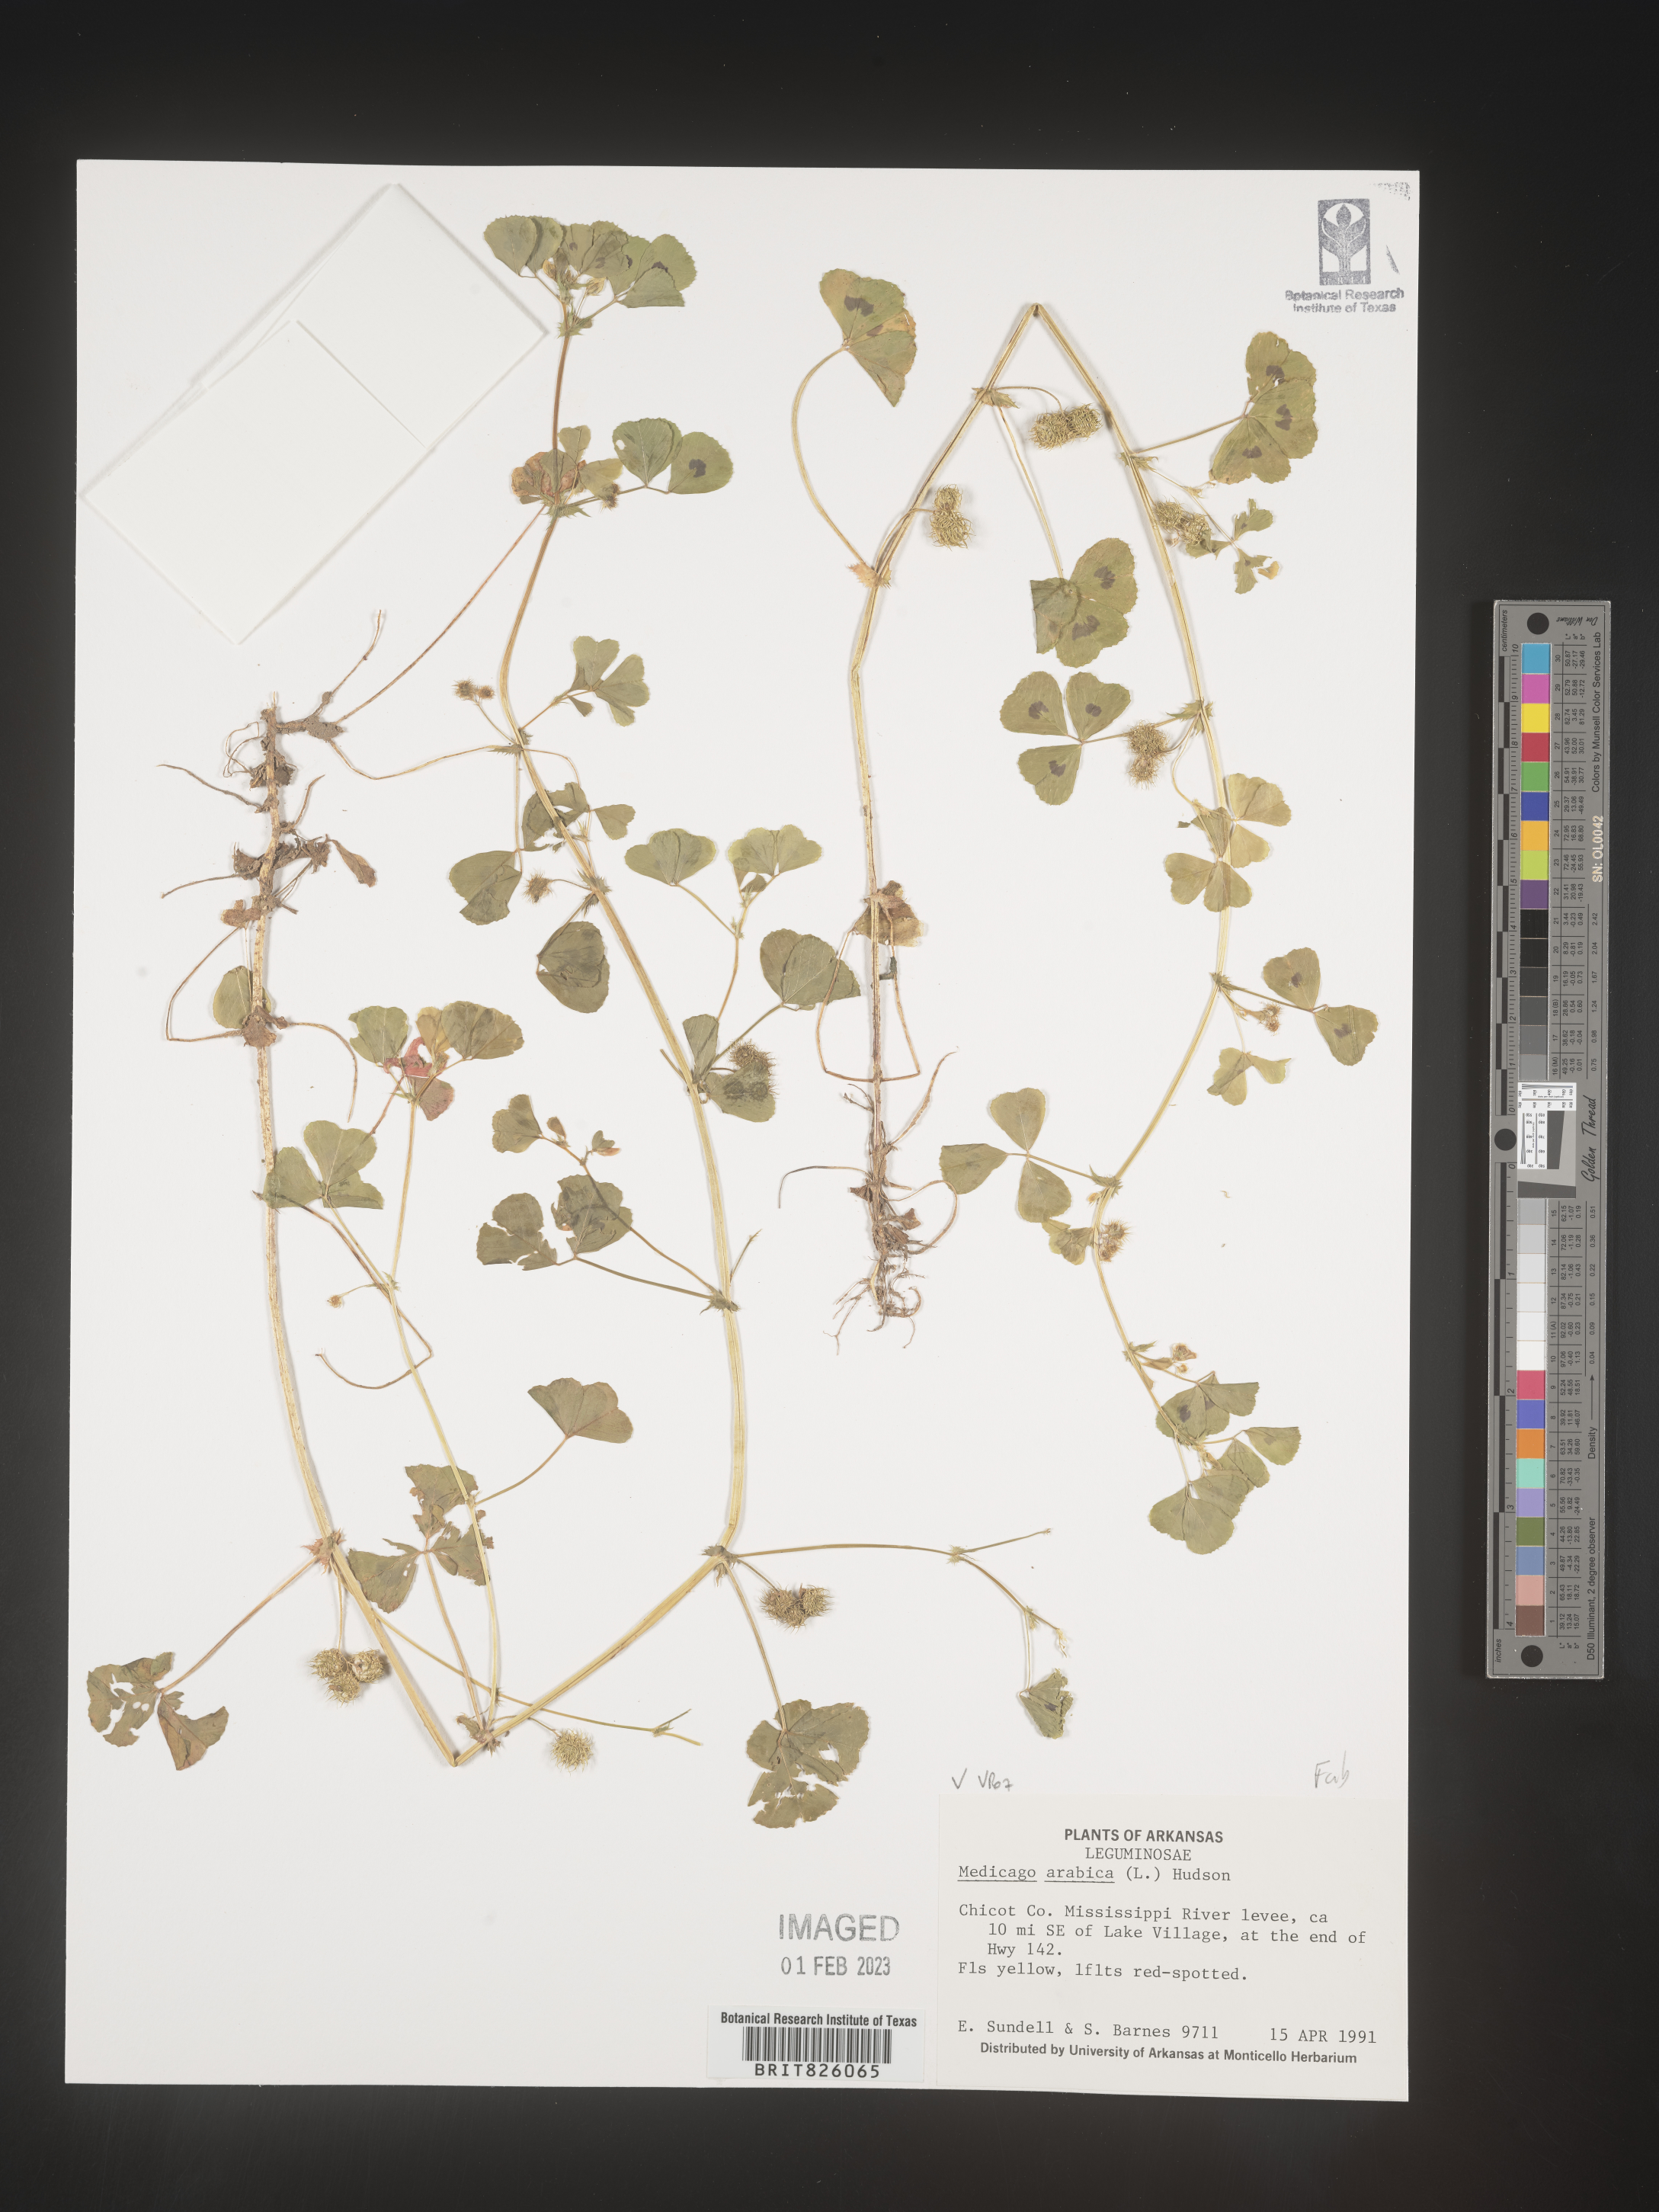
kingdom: Plantae
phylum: Tracheophyta
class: Magnoliopsida
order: Fabales
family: Fabaceae
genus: Medicago
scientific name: Medicago arabica
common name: Spotted medick
